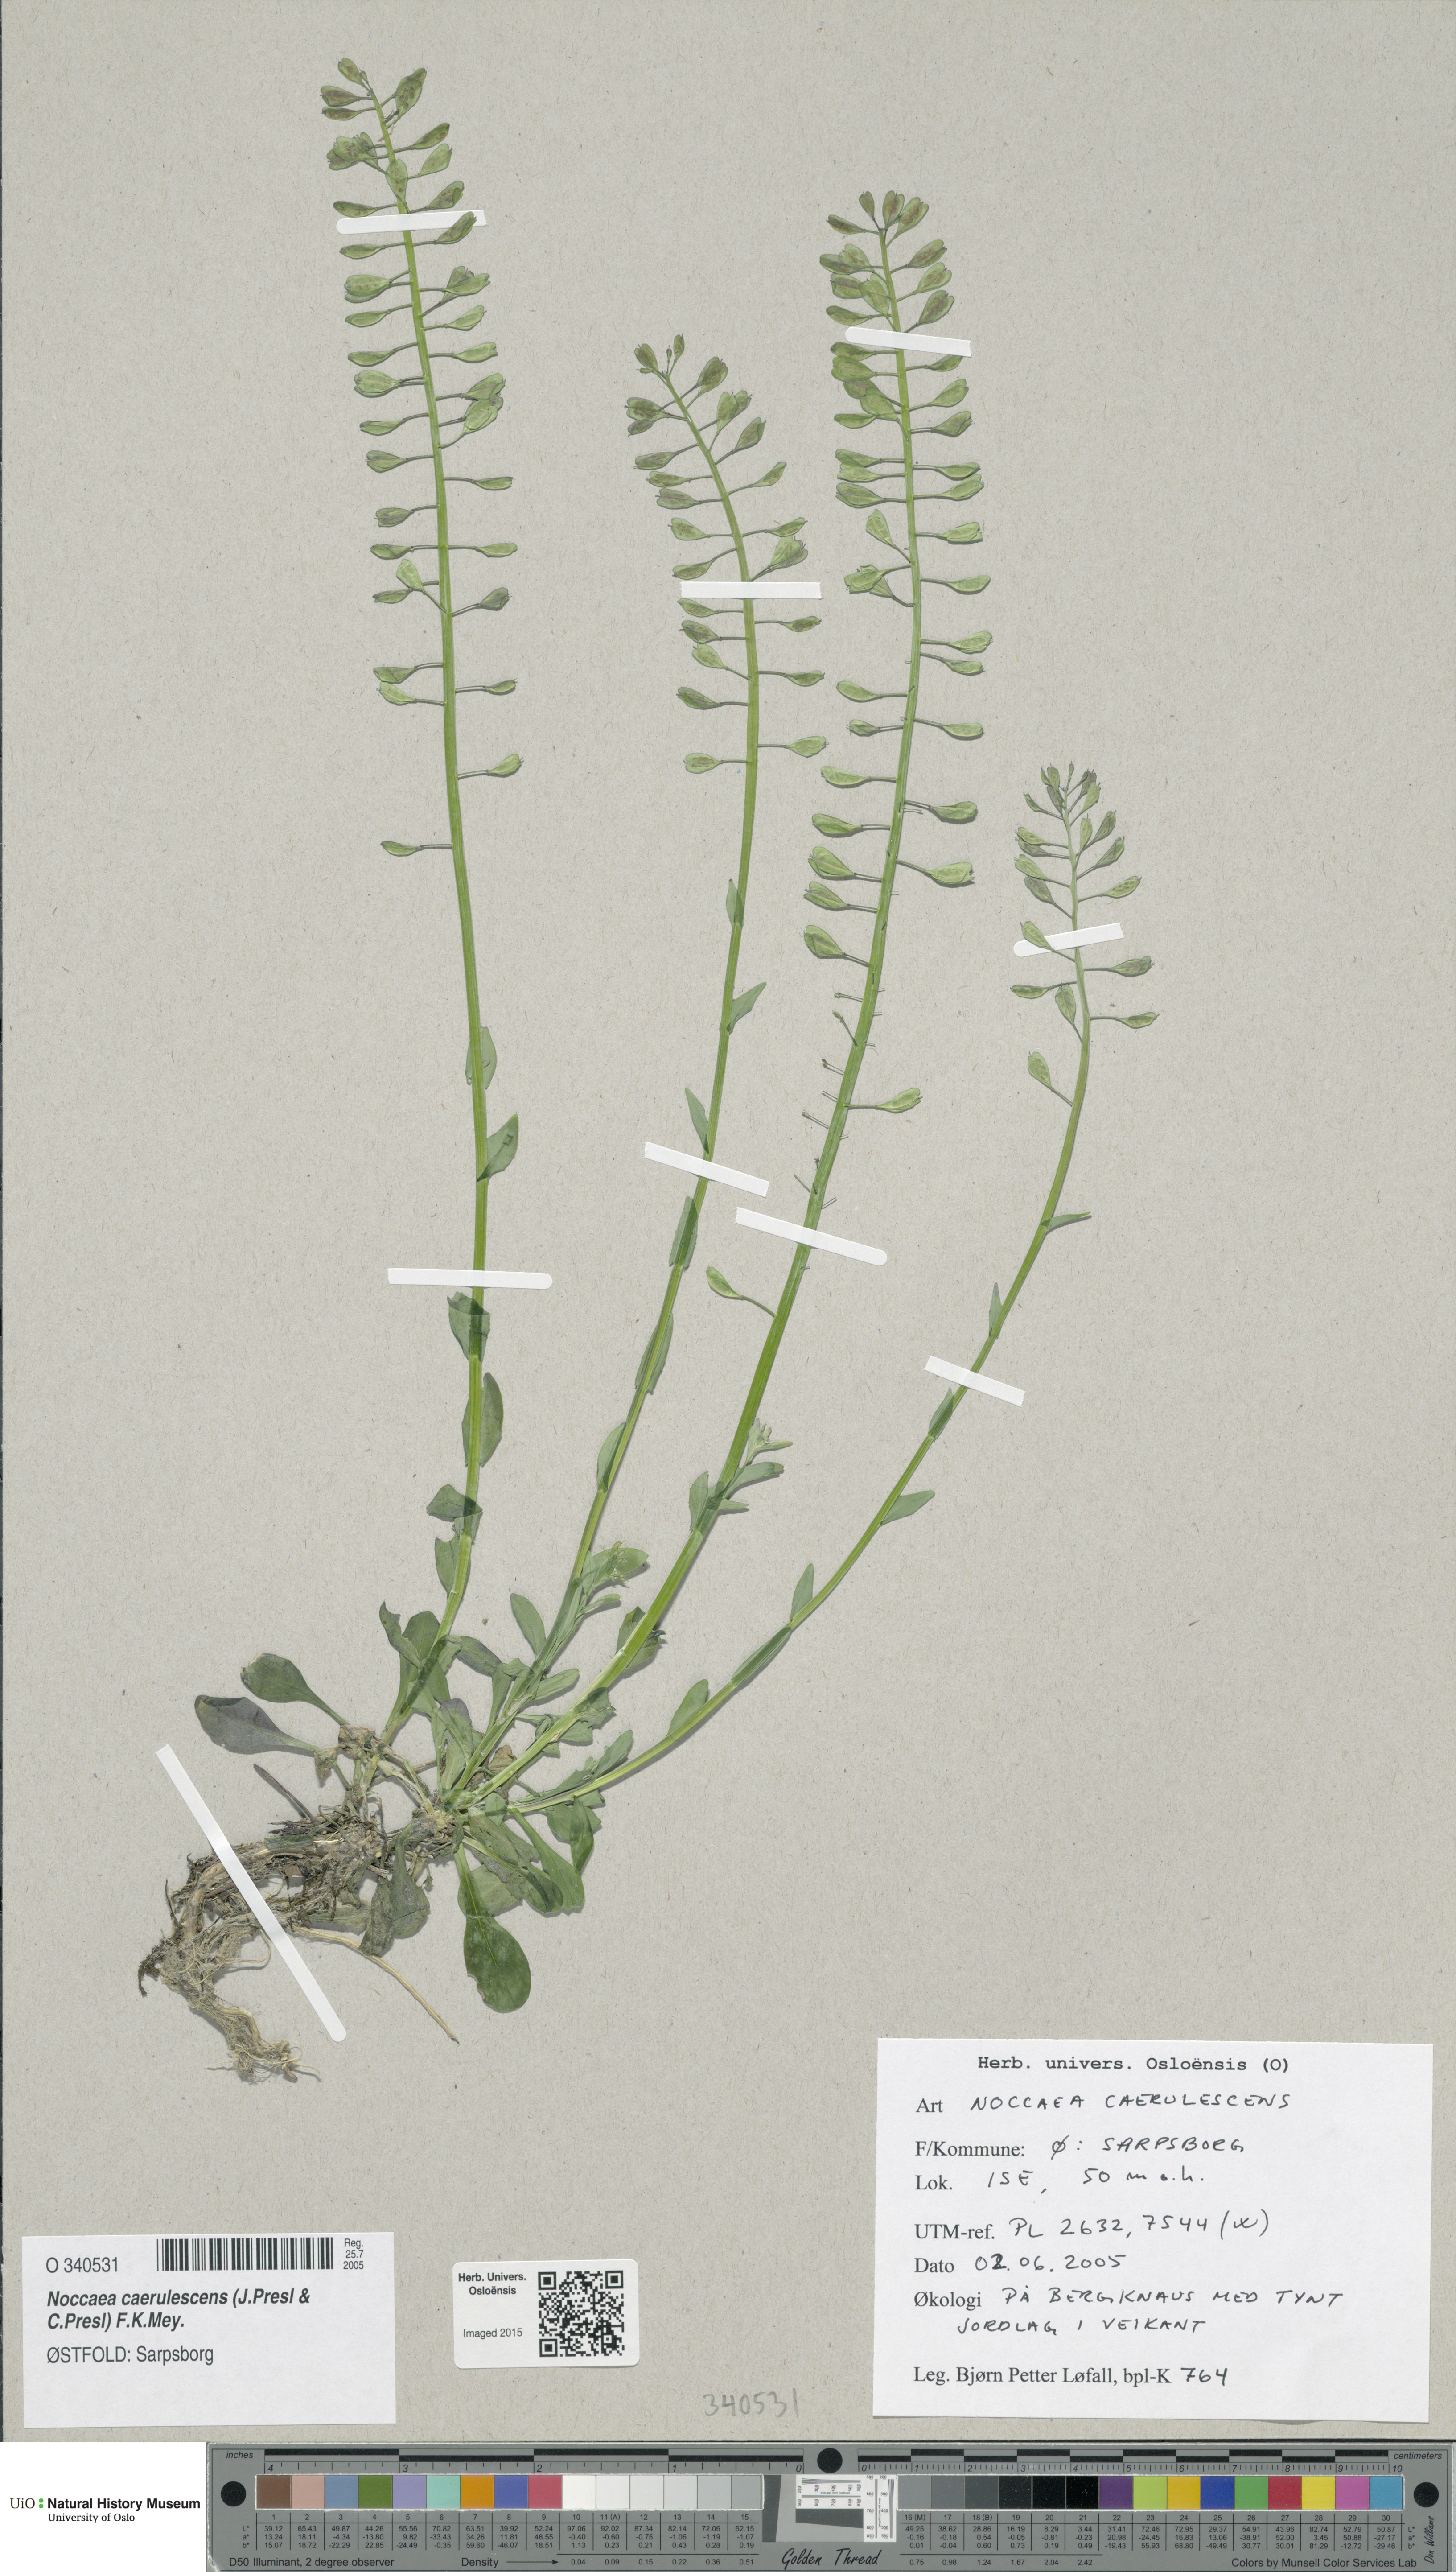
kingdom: Plantae
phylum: Tracheophyta
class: Magnoliopsida
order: Brassicales
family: Brassicaceae
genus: Noccaea
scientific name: Noccaea caerulescens
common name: Alpine pennycress
